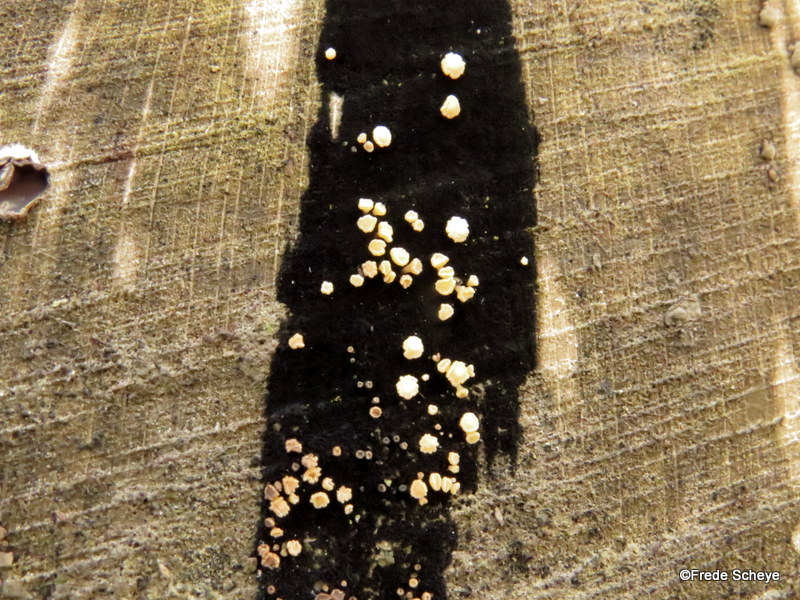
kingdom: Fungi
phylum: Ascomycota
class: Leotiomycetes
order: Helotiales
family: Helotiaceae
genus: Bispora
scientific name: Bispora pallescens
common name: måtte-snitskive
